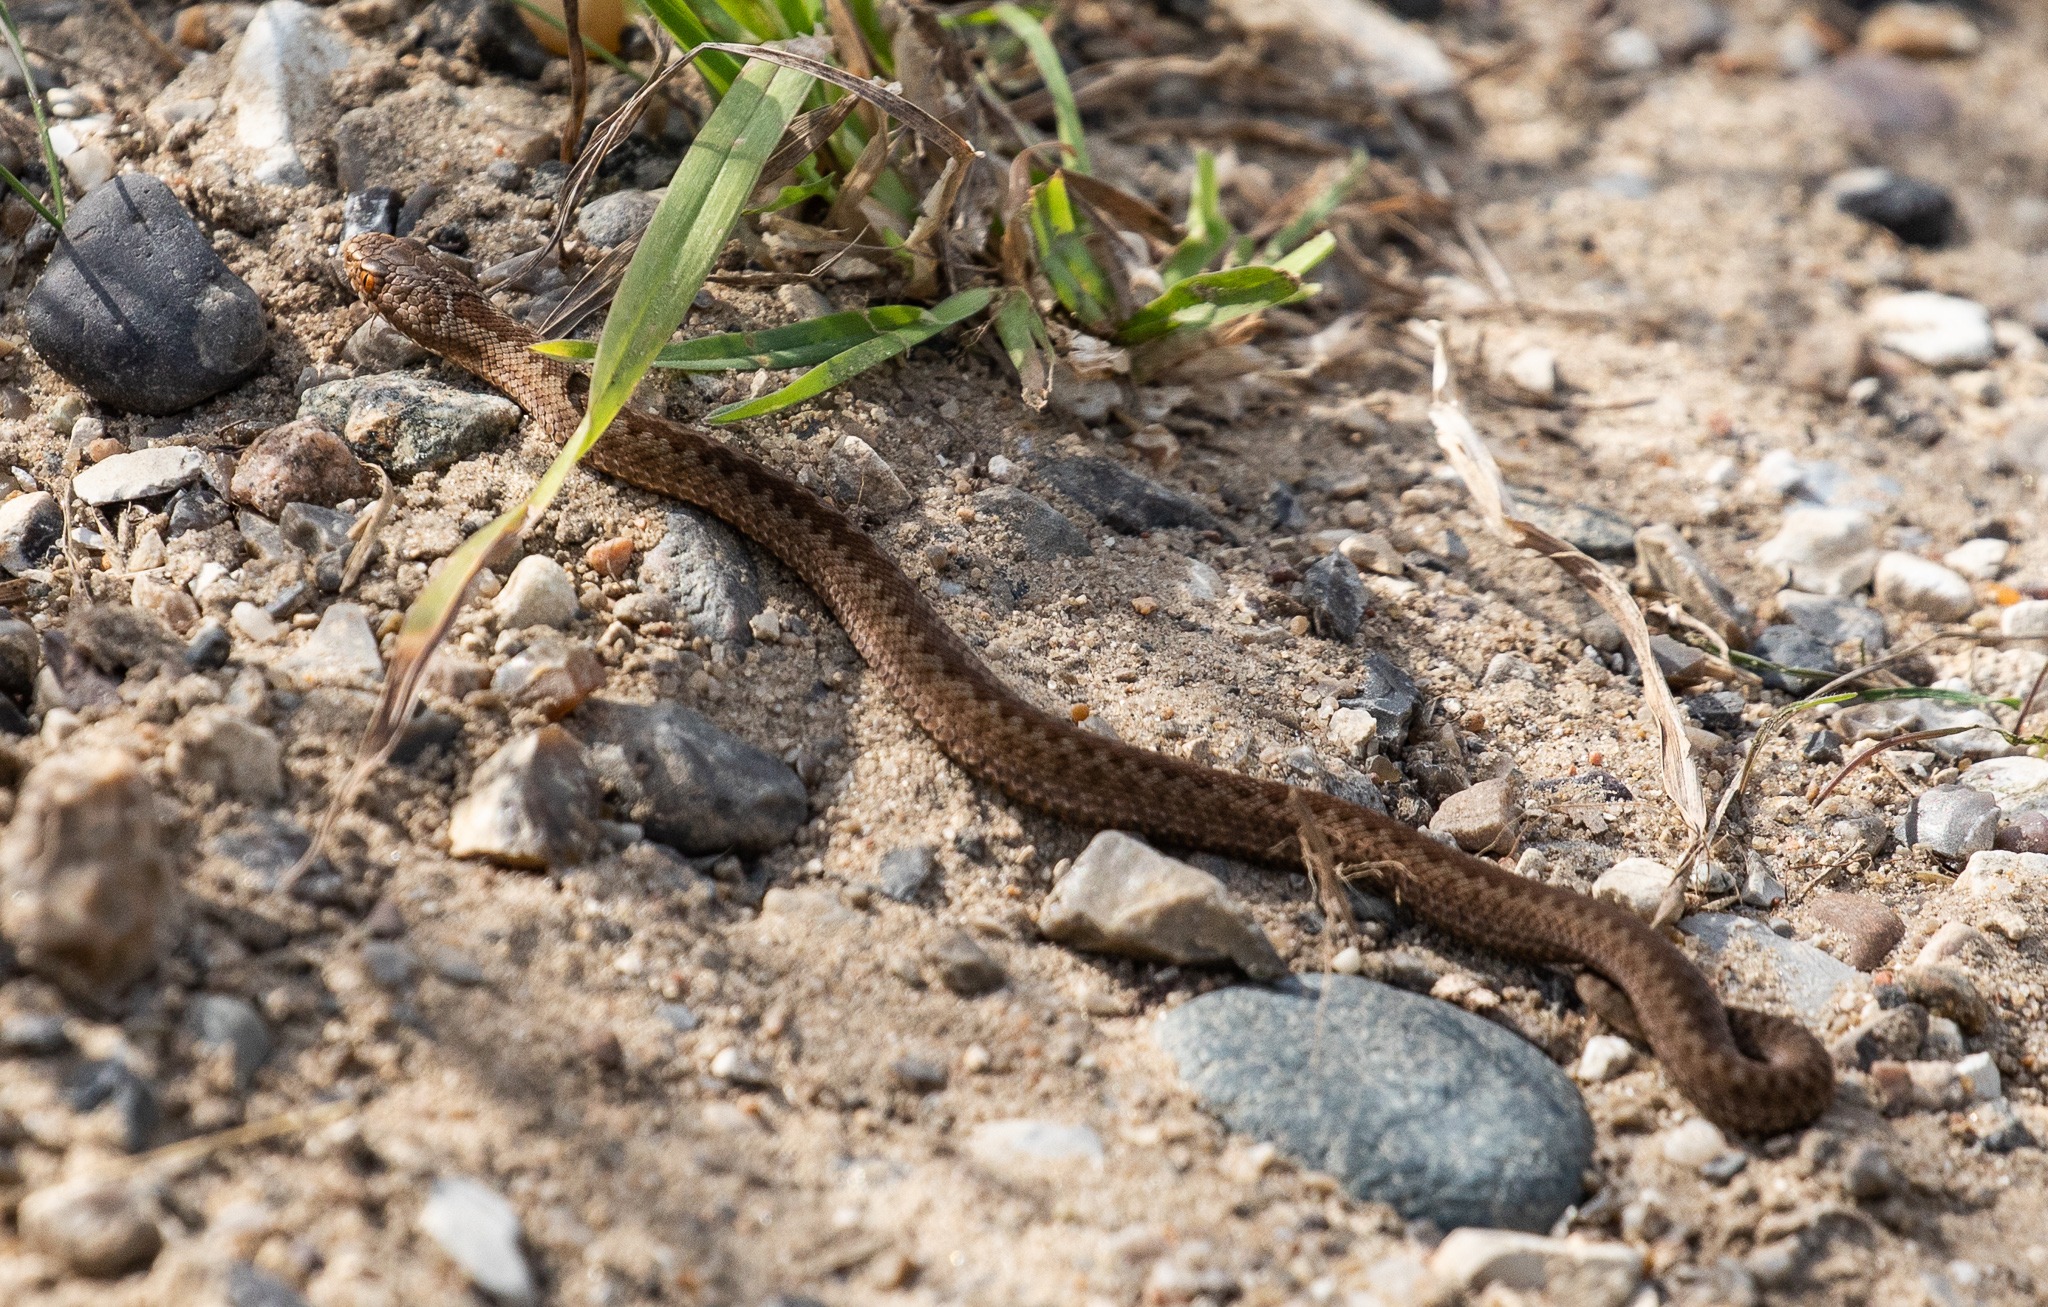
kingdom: Animalia
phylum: Chordata
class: Squamata
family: Viperidae
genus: Vipera
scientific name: Vipera berus
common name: Hugorm
